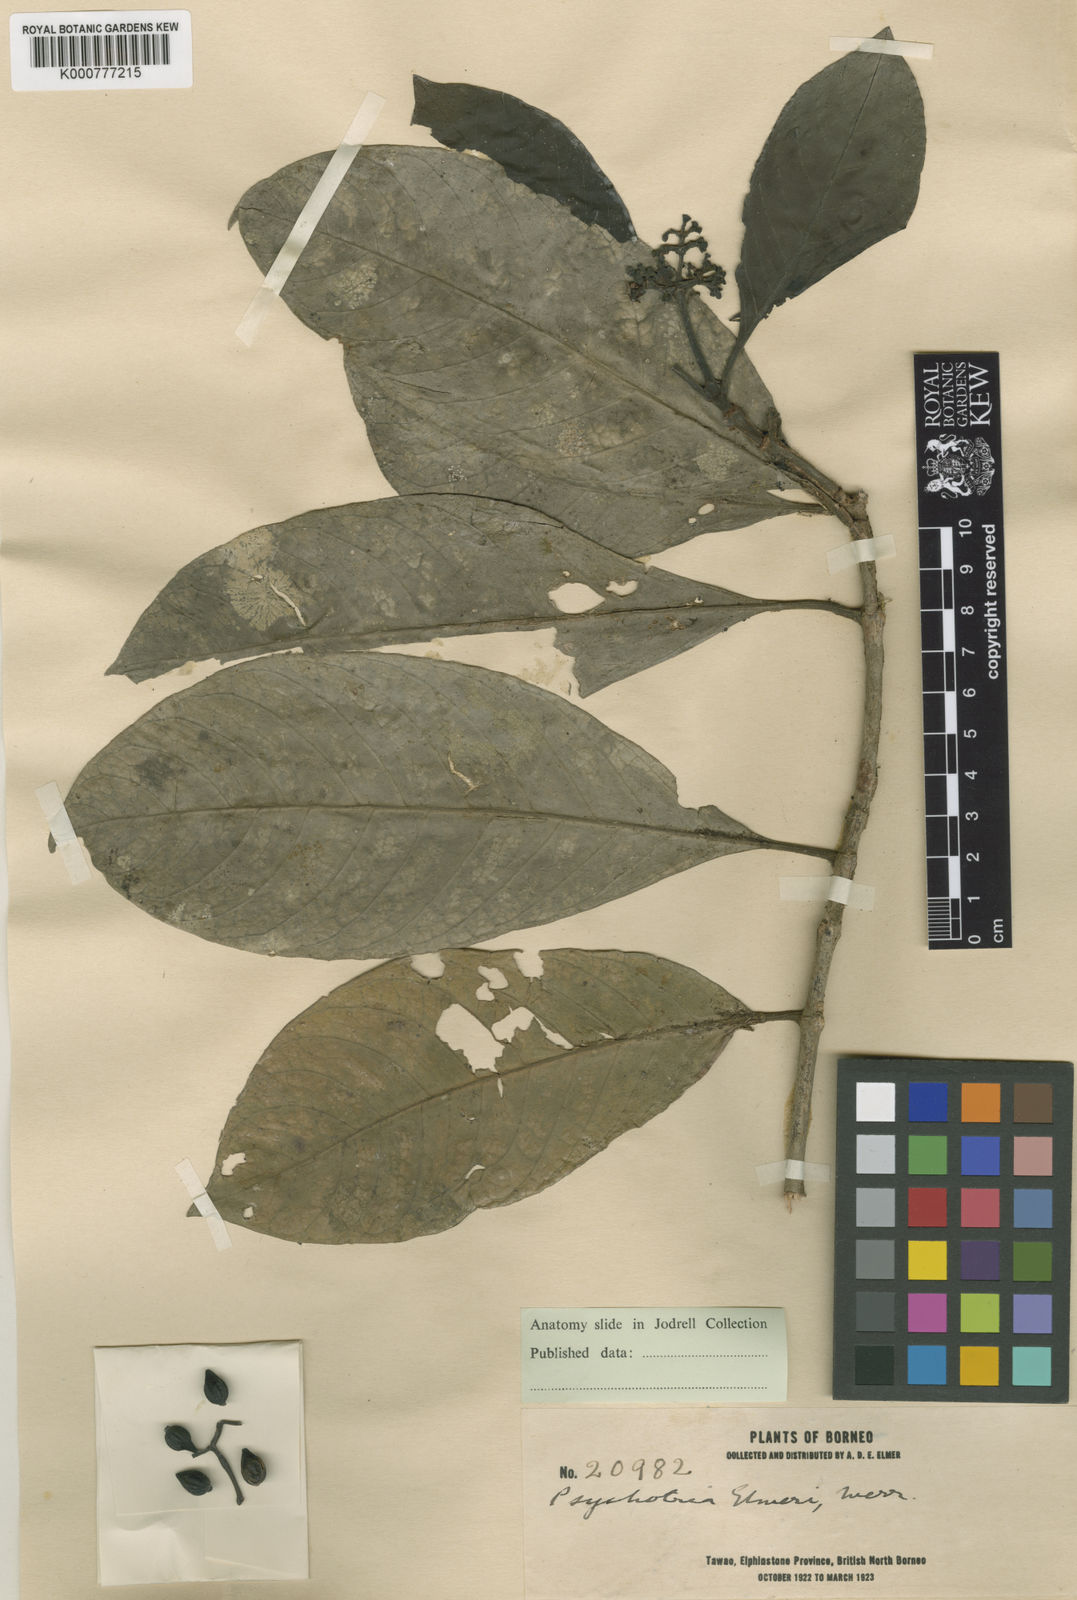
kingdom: Plantae
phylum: Tracheophyta
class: Magnoliopsida
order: Gentianales
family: Rubiaceae
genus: Psychotria
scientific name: Psychotria elmeri
